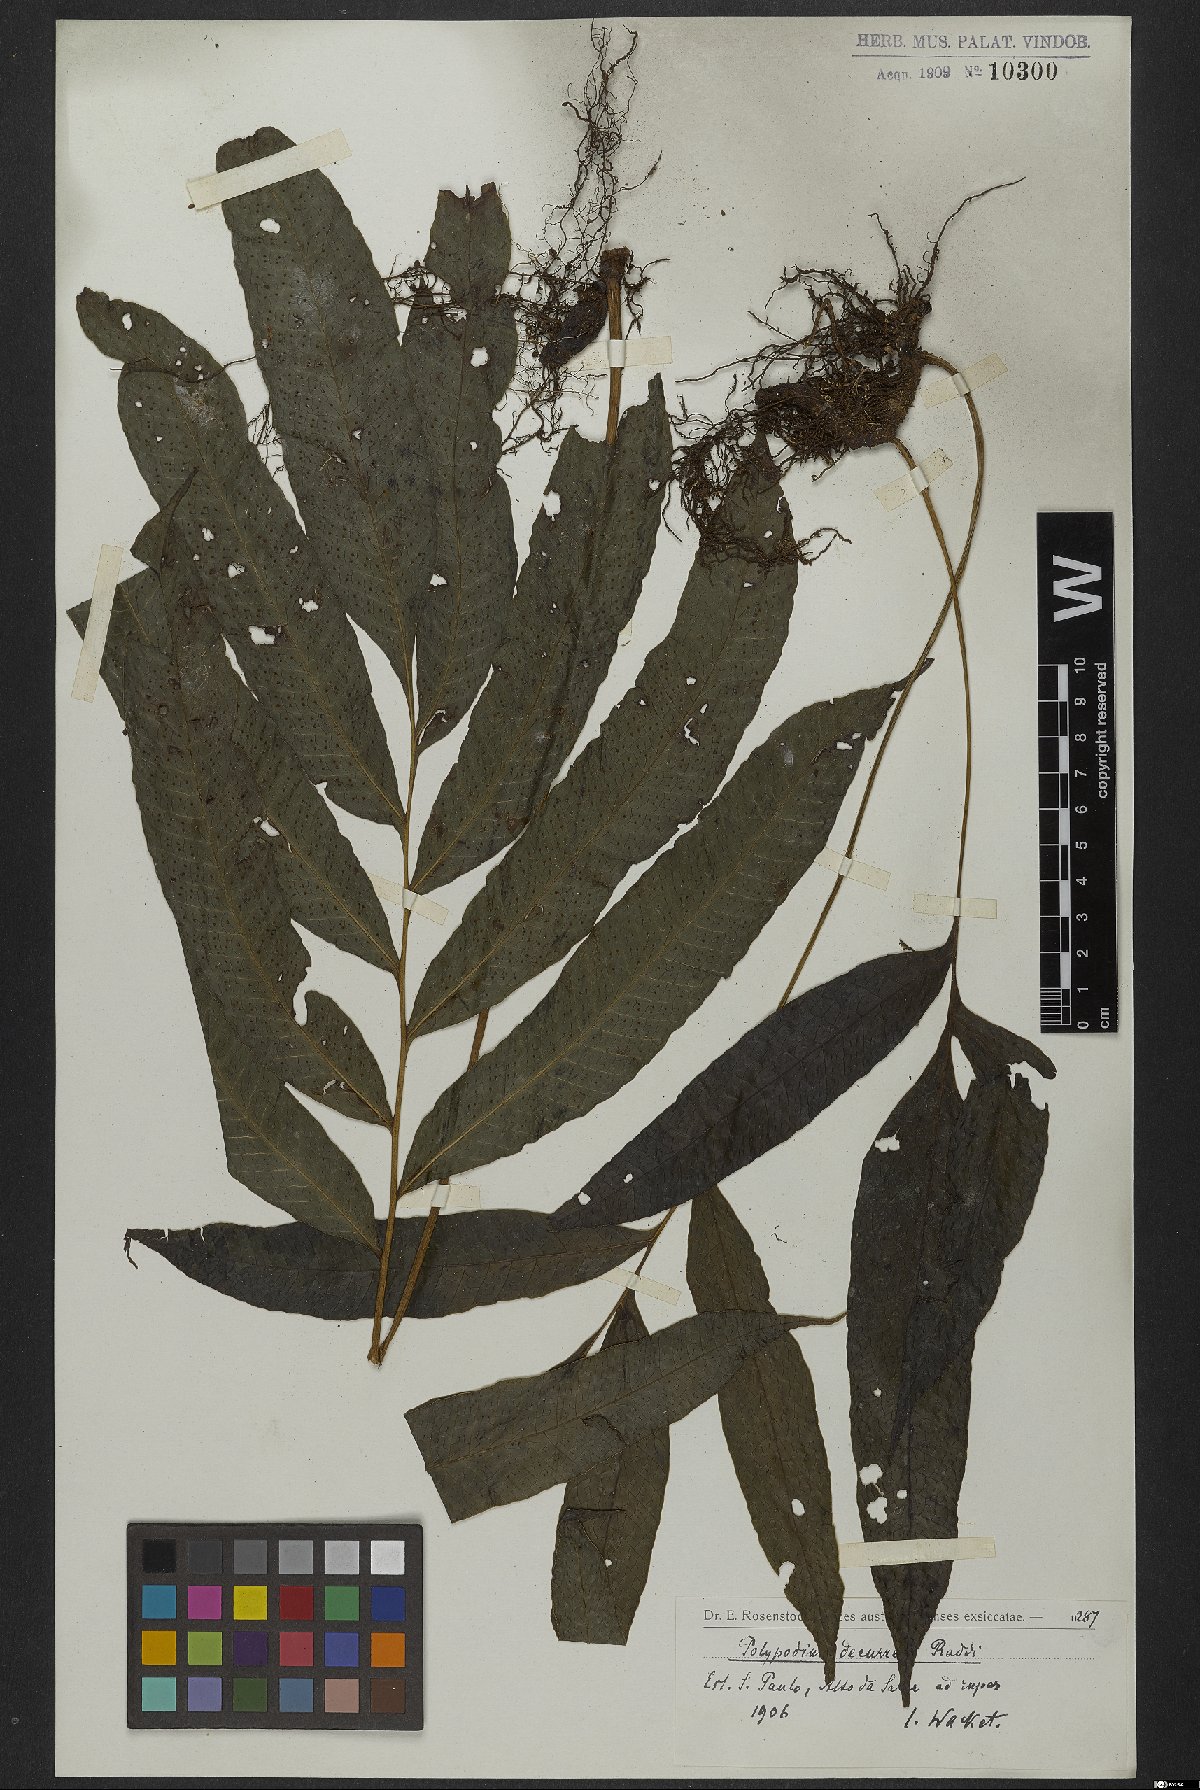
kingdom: Plantae
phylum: Tracheophyta
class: Polypodiopsida
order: Polypodiales
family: Polypodiaceae
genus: Campyloneurum
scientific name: Campyloneurum decurrens
